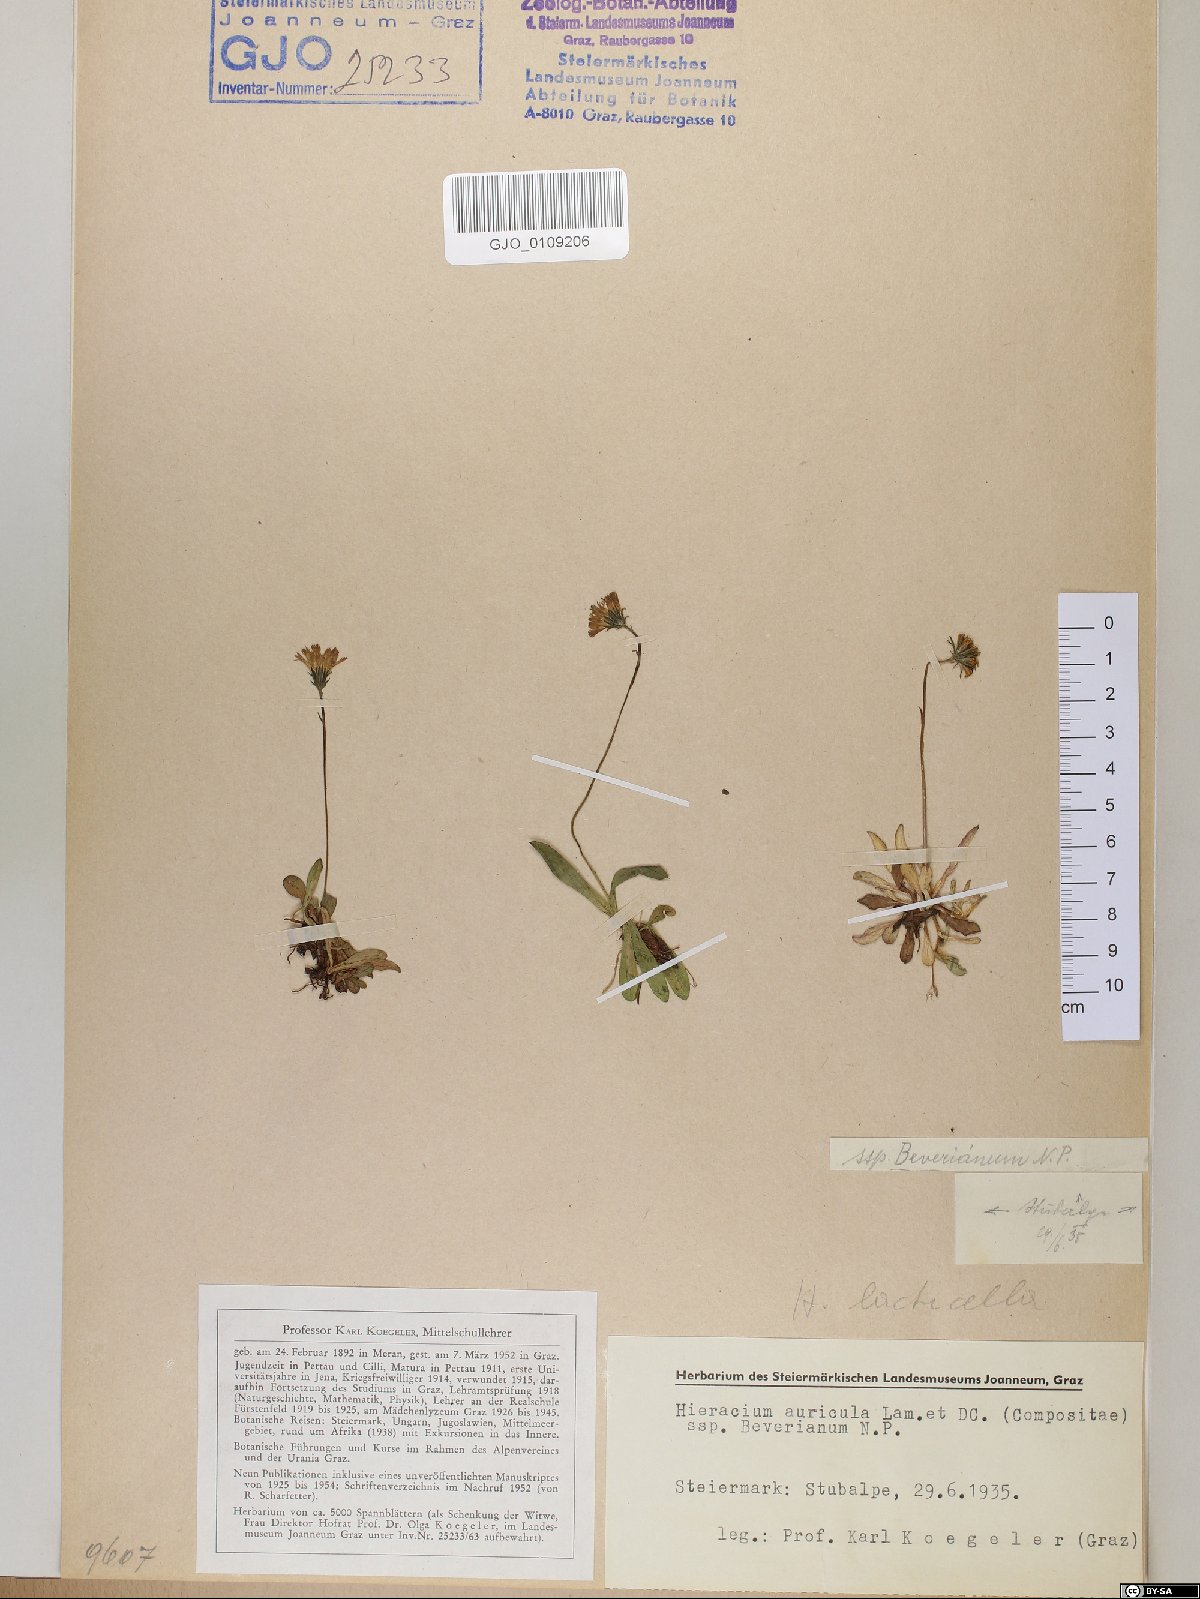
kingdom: Plantae
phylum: Tracheophyta
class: Magnoliopsida
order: Asterales
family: Asteraceae
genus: Hieracium
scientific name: Hieracium auricula
